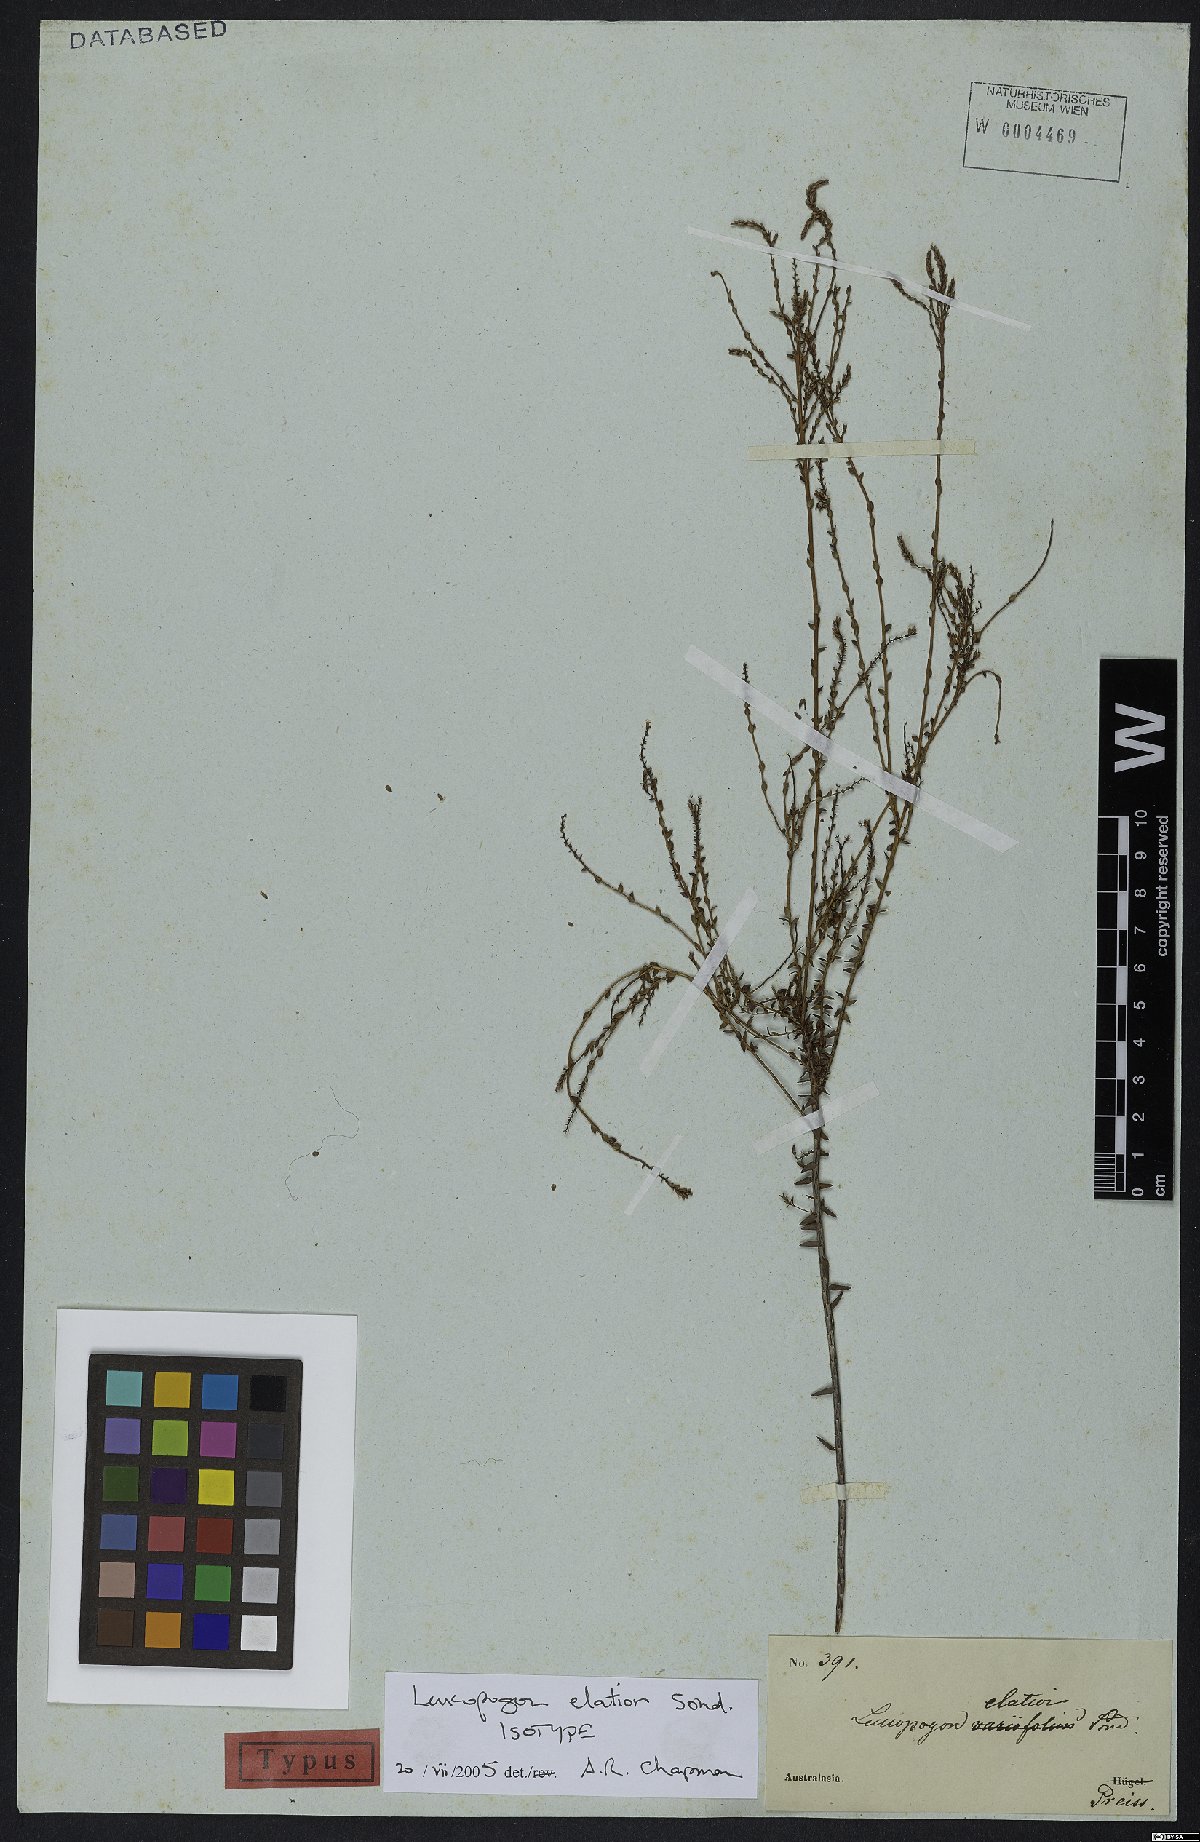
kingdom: Plantae
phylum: Tracheophyta
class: Magnoliopsida
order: Ericales
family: Ericaceae
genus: Leucopogon
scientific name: Leucopogon elatior
